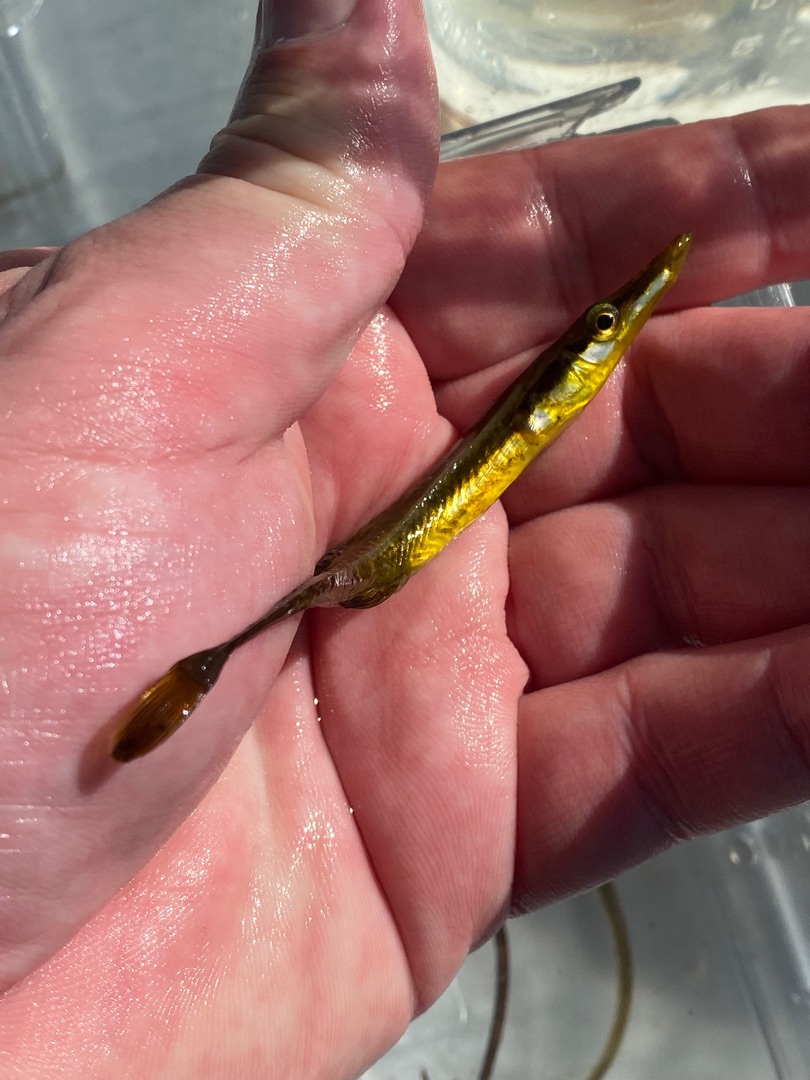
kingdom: Animalia
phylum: Chordata
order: Gasterosteiformes
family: Gasterosteidae
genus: Spinachia
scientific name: Spinachia spinachia
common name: Tangsnarre
